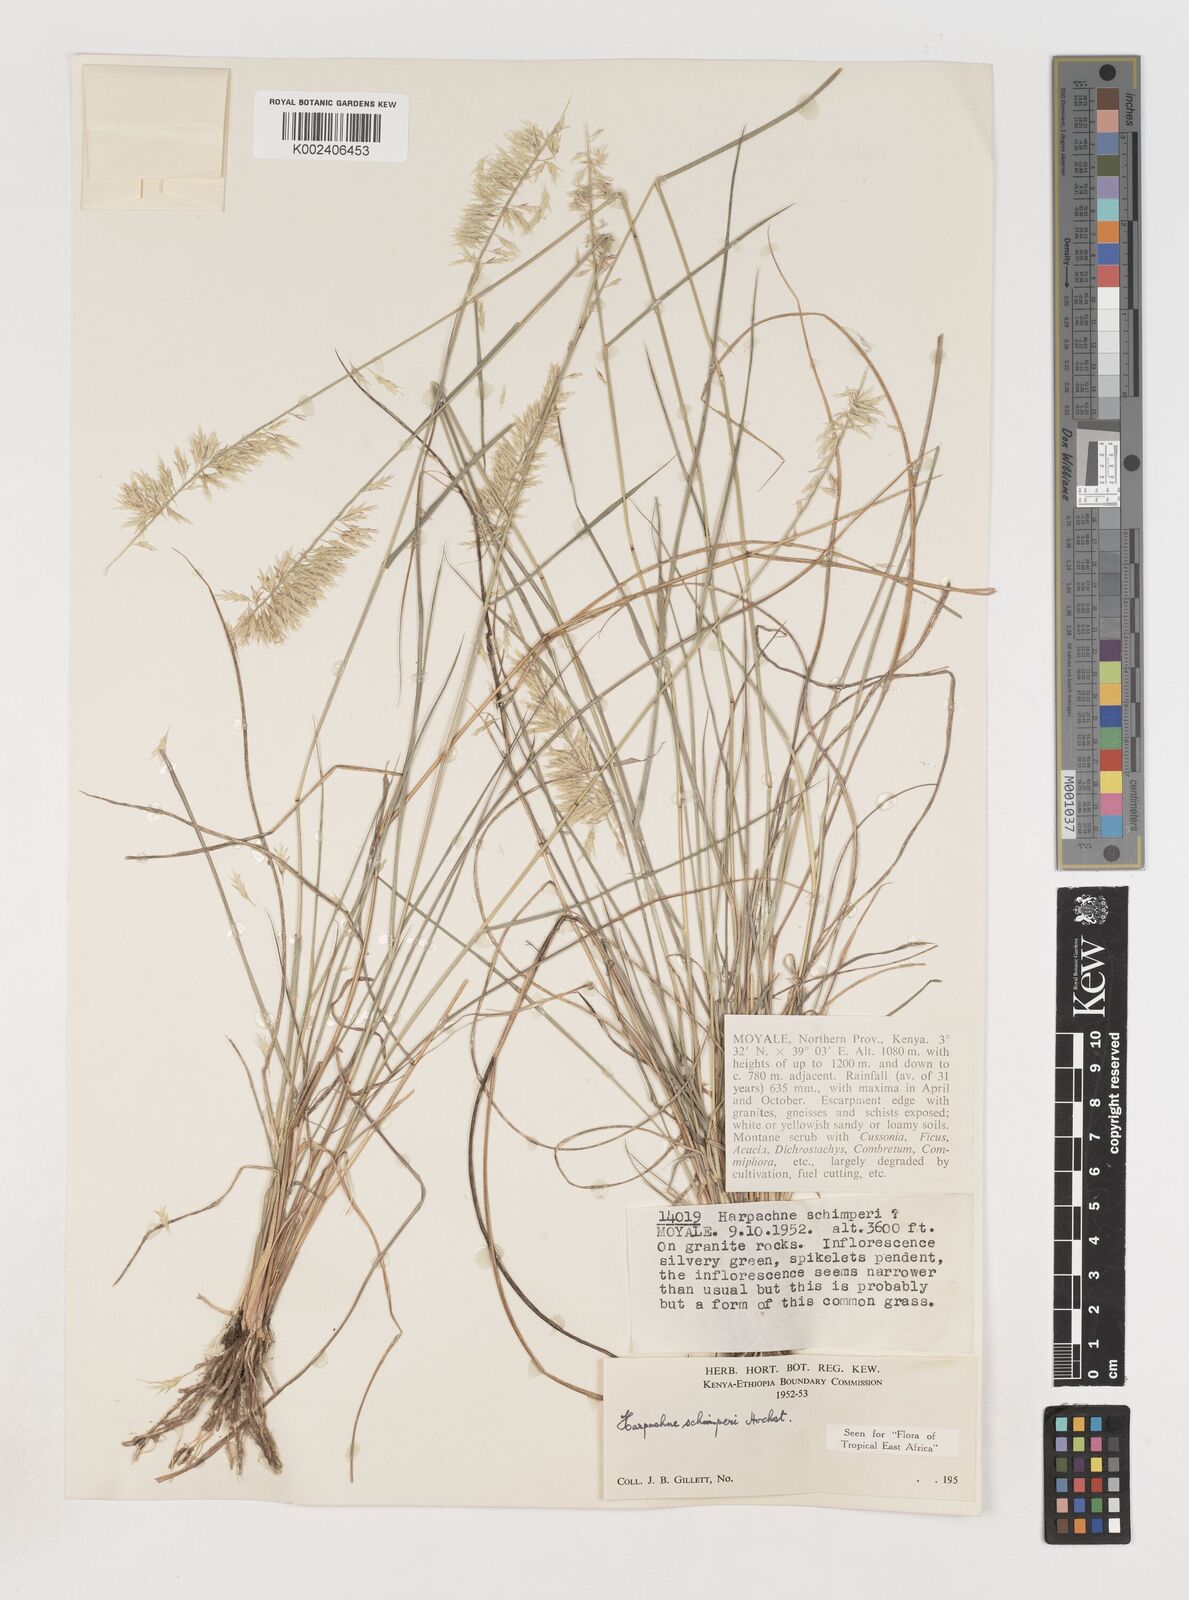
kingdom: Plantae
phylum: Tracheophyta
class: Liliopsida
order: Poales
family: Poaceae
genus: Harpachne
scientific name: Harpachne schimperi
